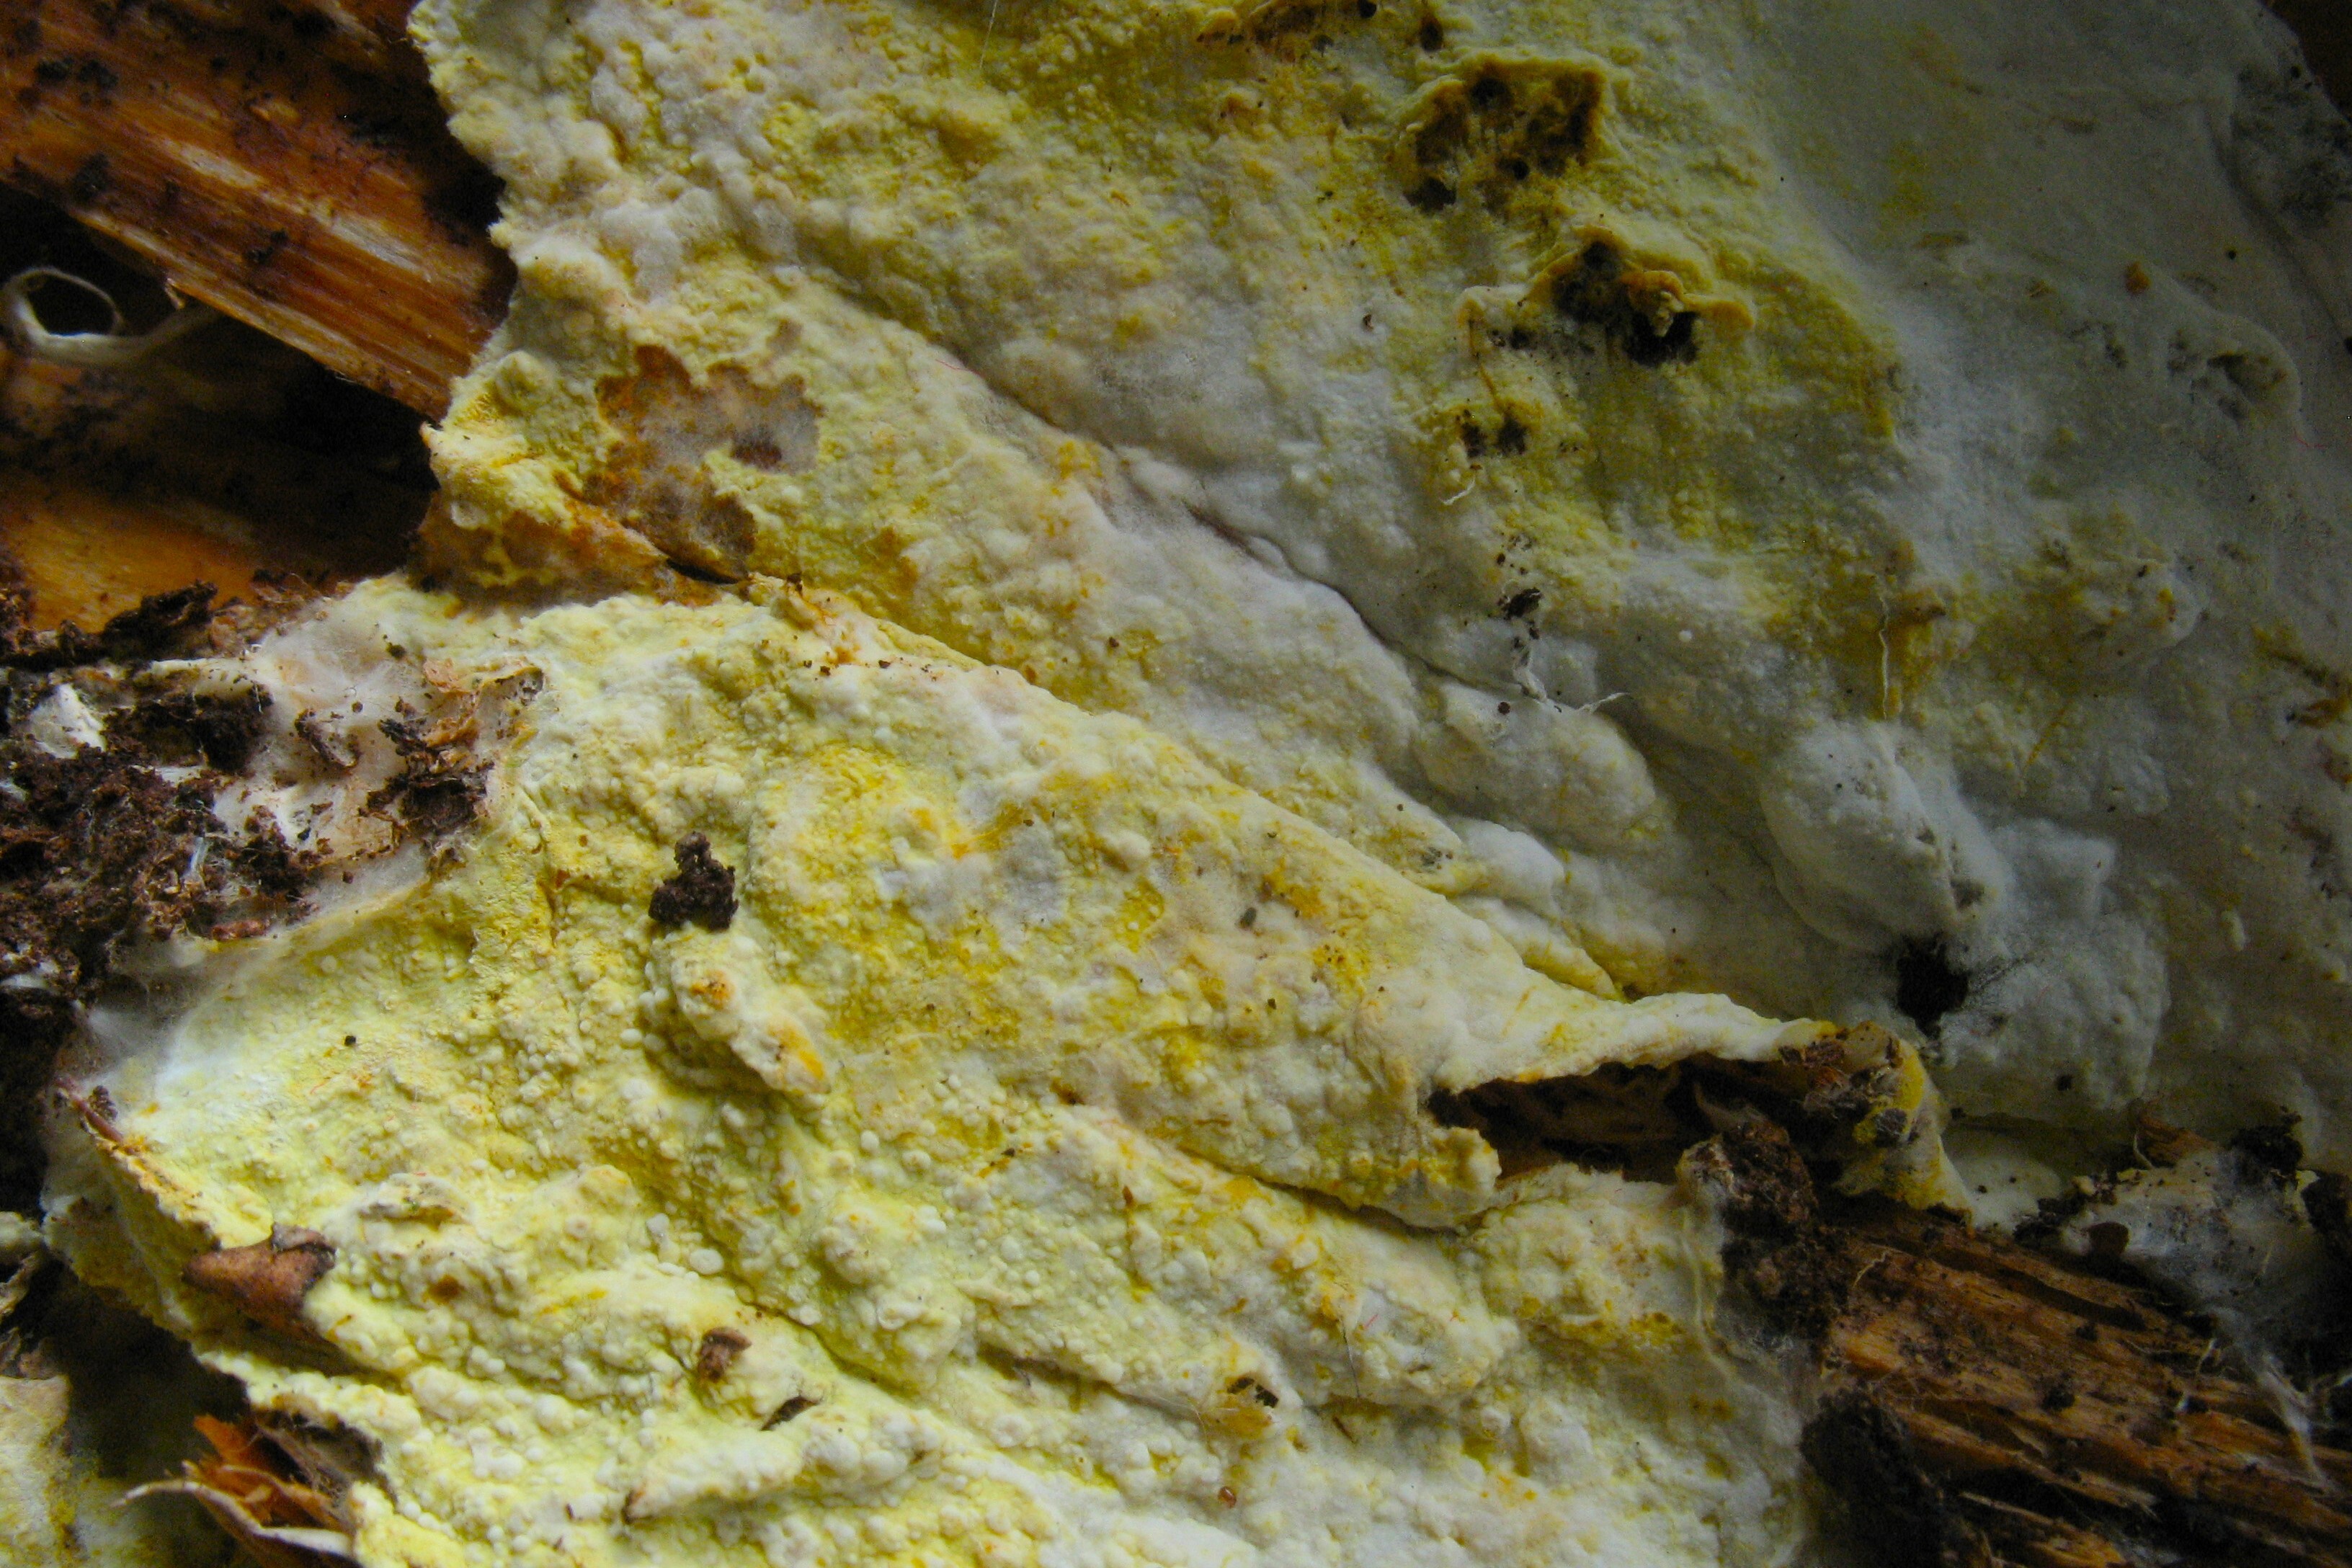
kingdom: Fungi
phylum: Basidiomycota
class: Agaricomycetes
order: Atheliales
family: Atheliaceae
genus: Piloderma
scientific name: Piloderma byssinum
